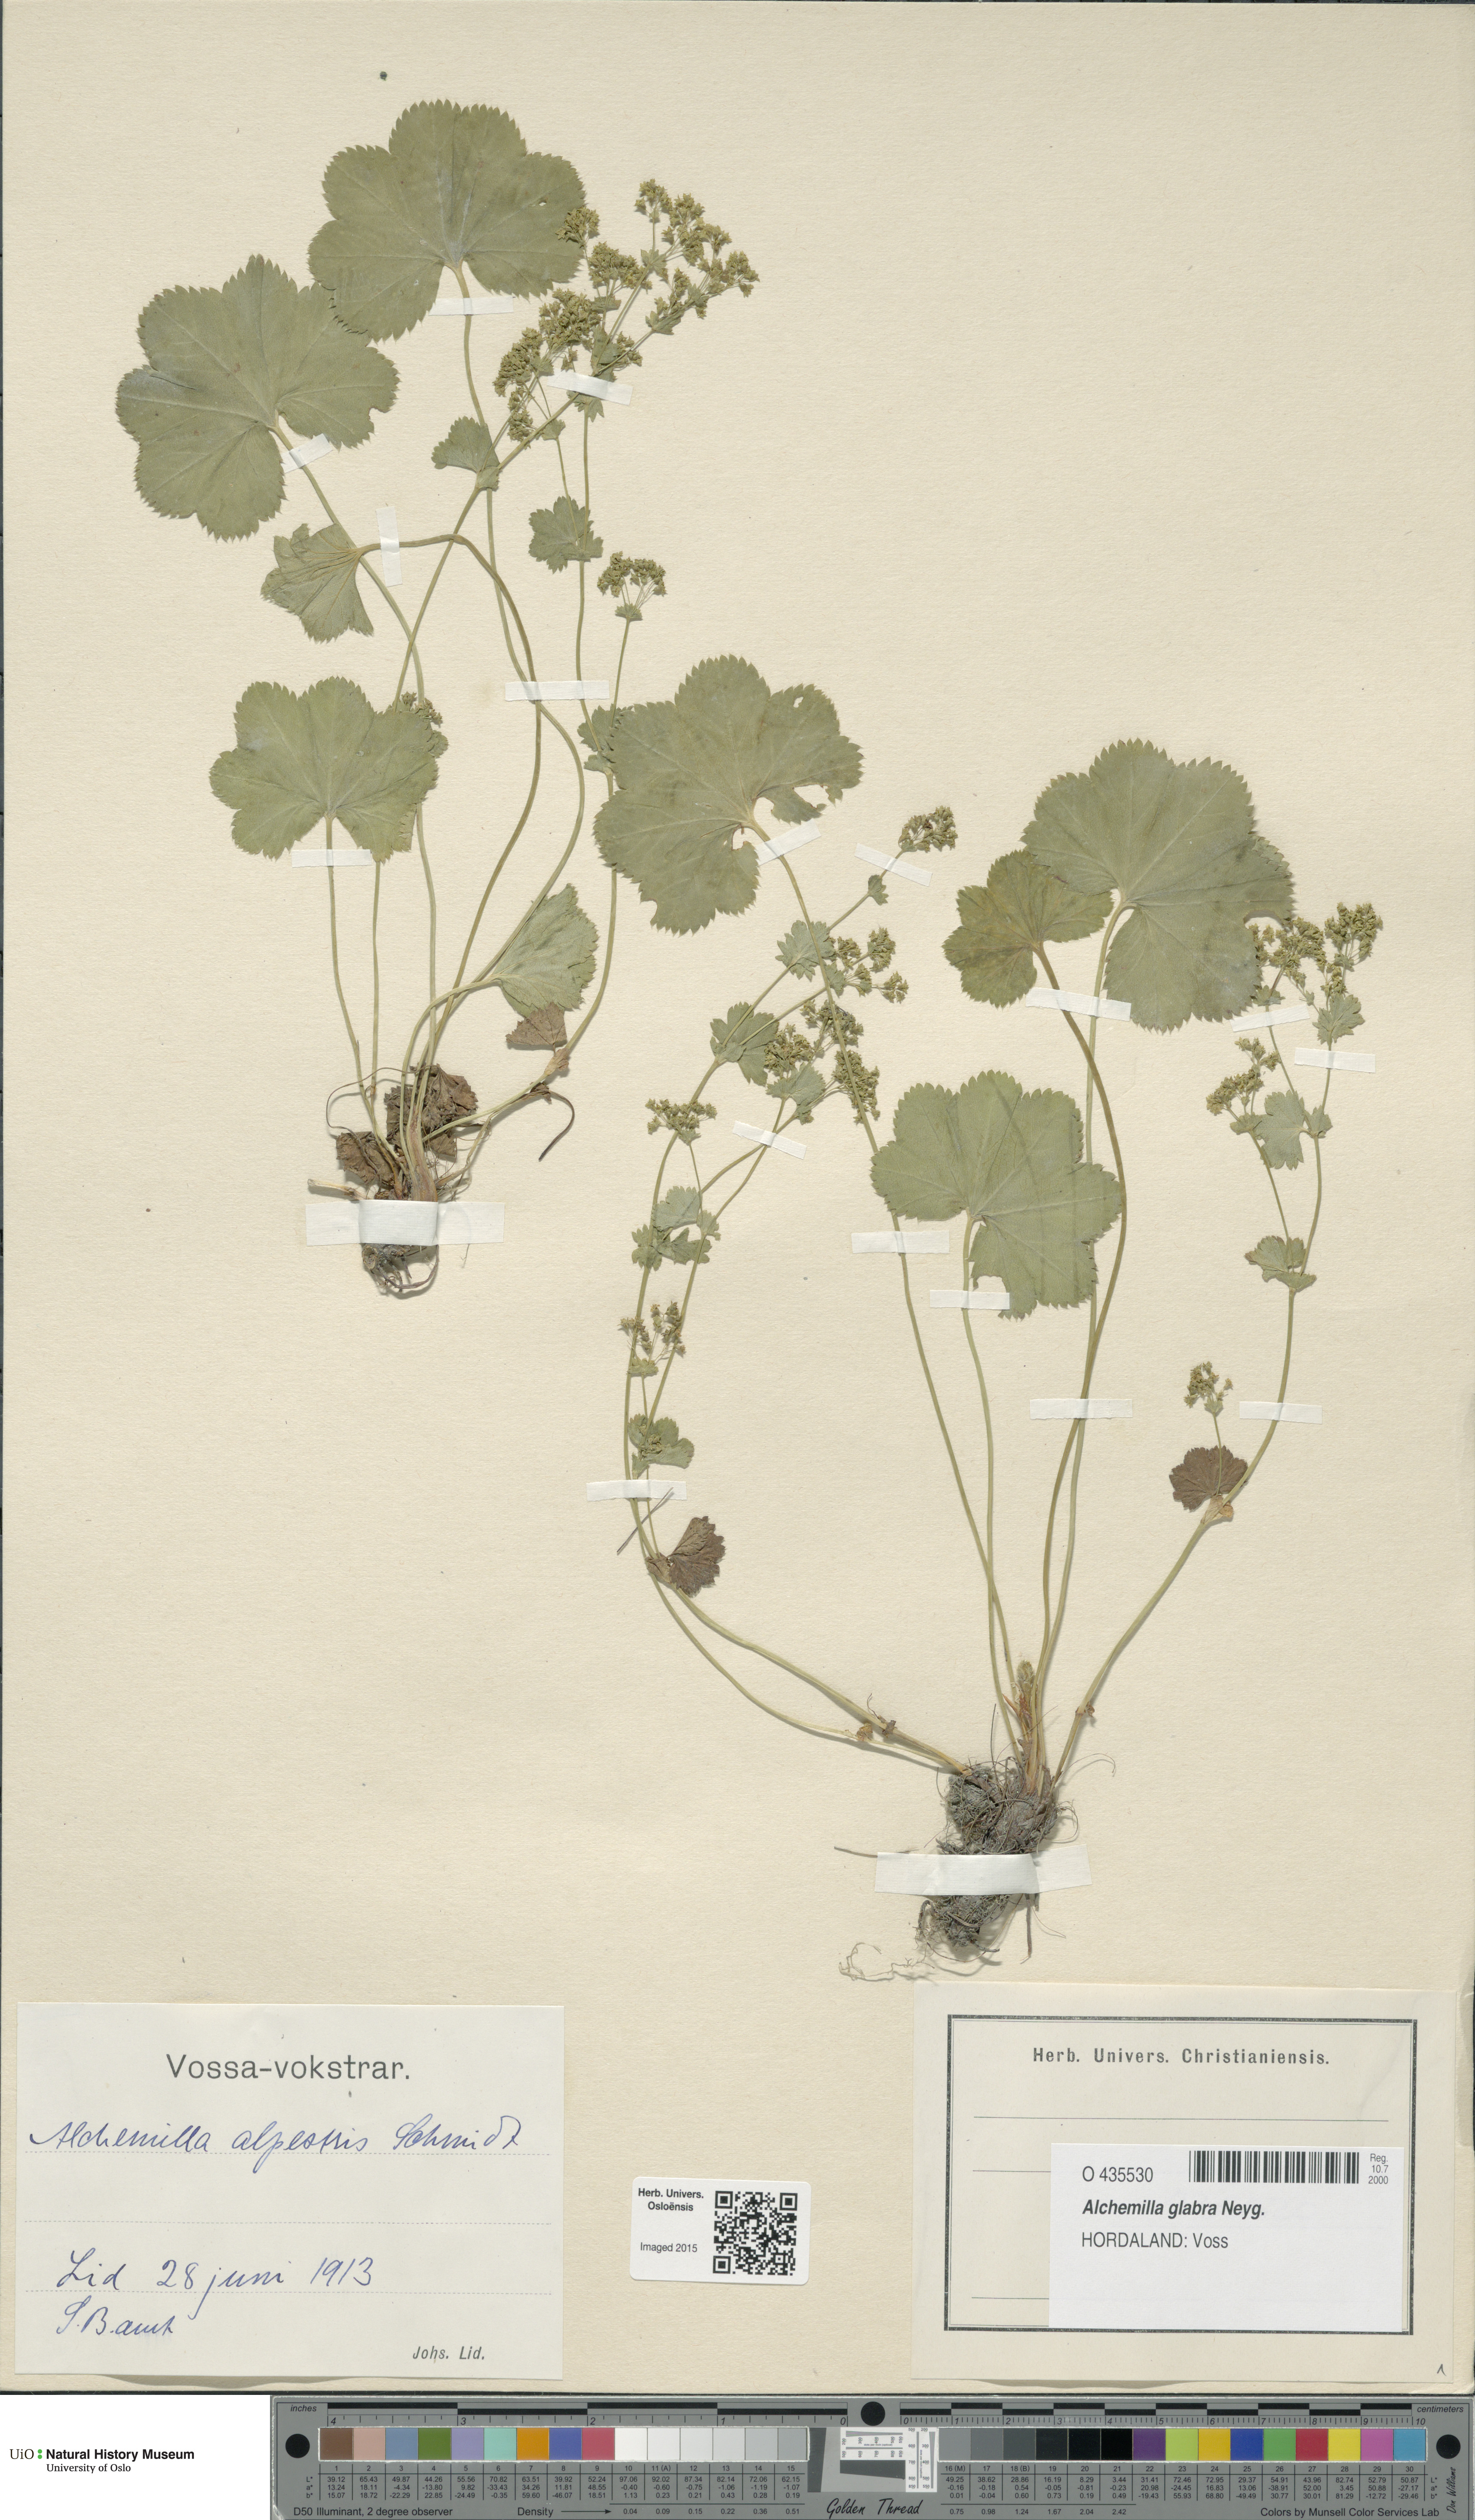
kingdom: Plantae
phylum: Tracheophyta
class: Magnoliopsida
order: Rosales
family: Rosaceae
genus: Alchemilla
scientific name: Alchemilla glabra
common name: Smooth lady's-mantle
